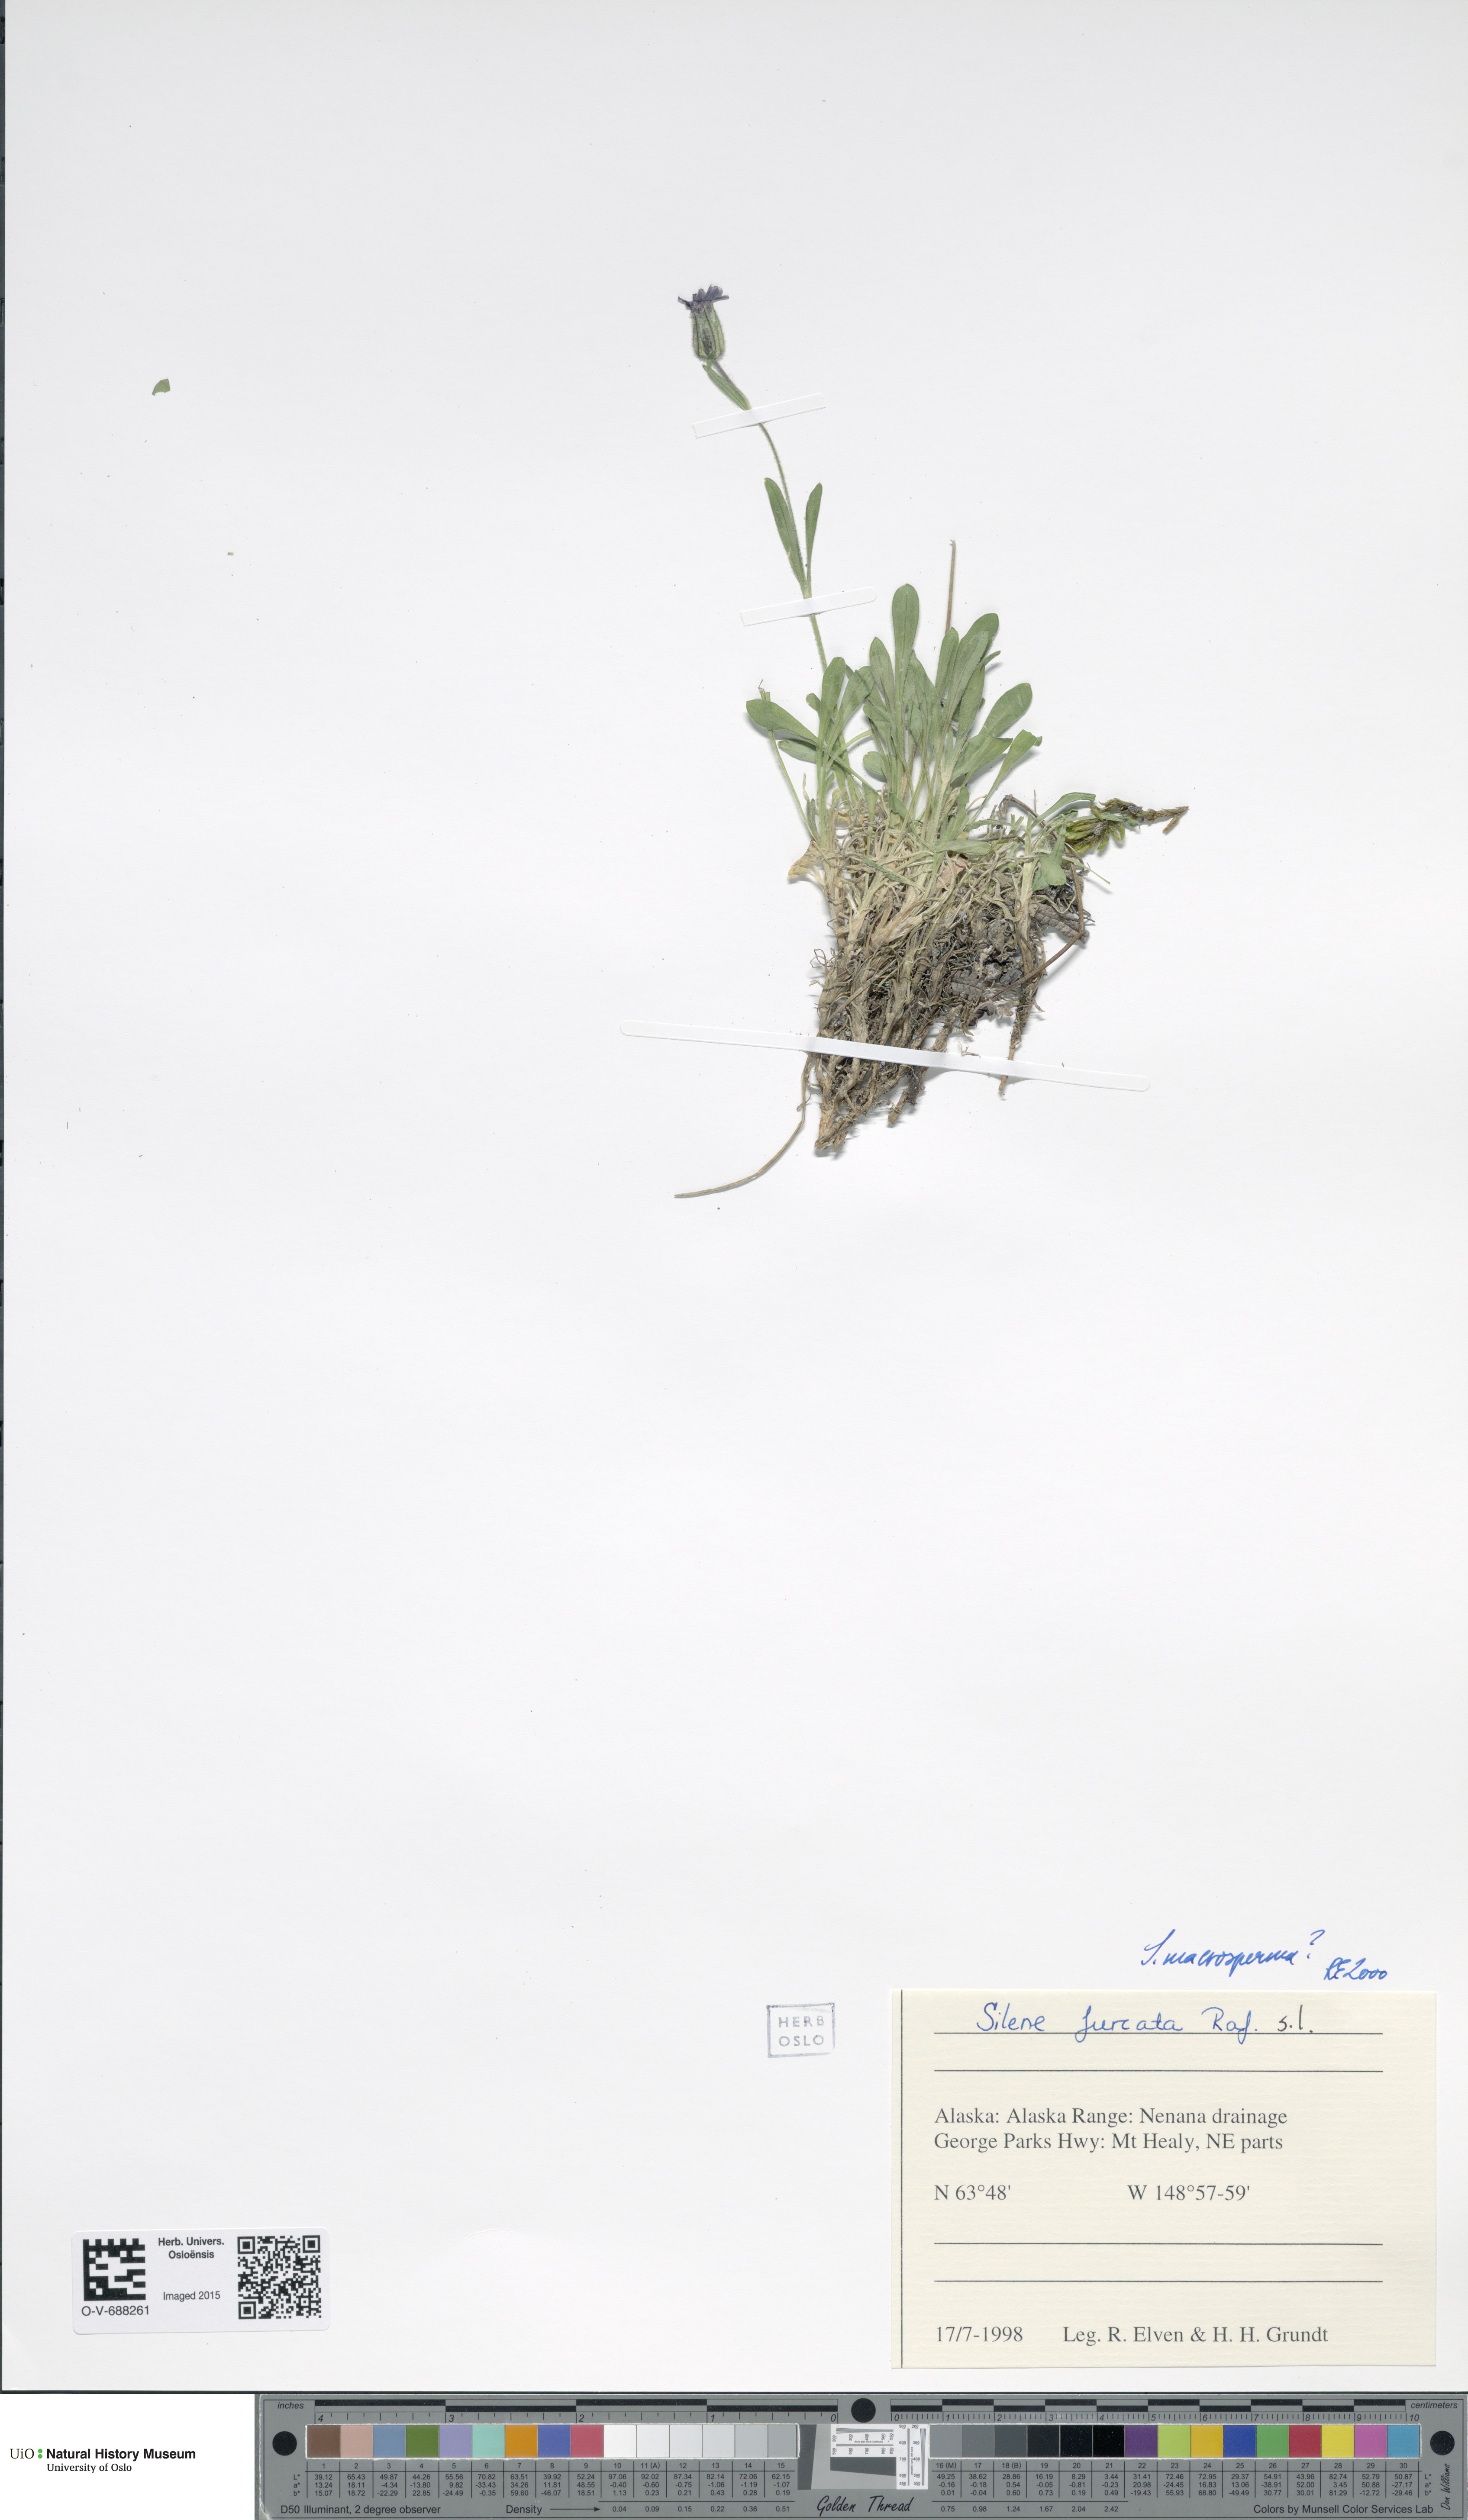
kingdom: Plantae
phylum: Tracheophyta
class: Magnoliopsida
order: Caryophyllales
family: Caryophyllaceae
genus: Silene
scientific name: Silene uralensis
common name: Nodding campion
